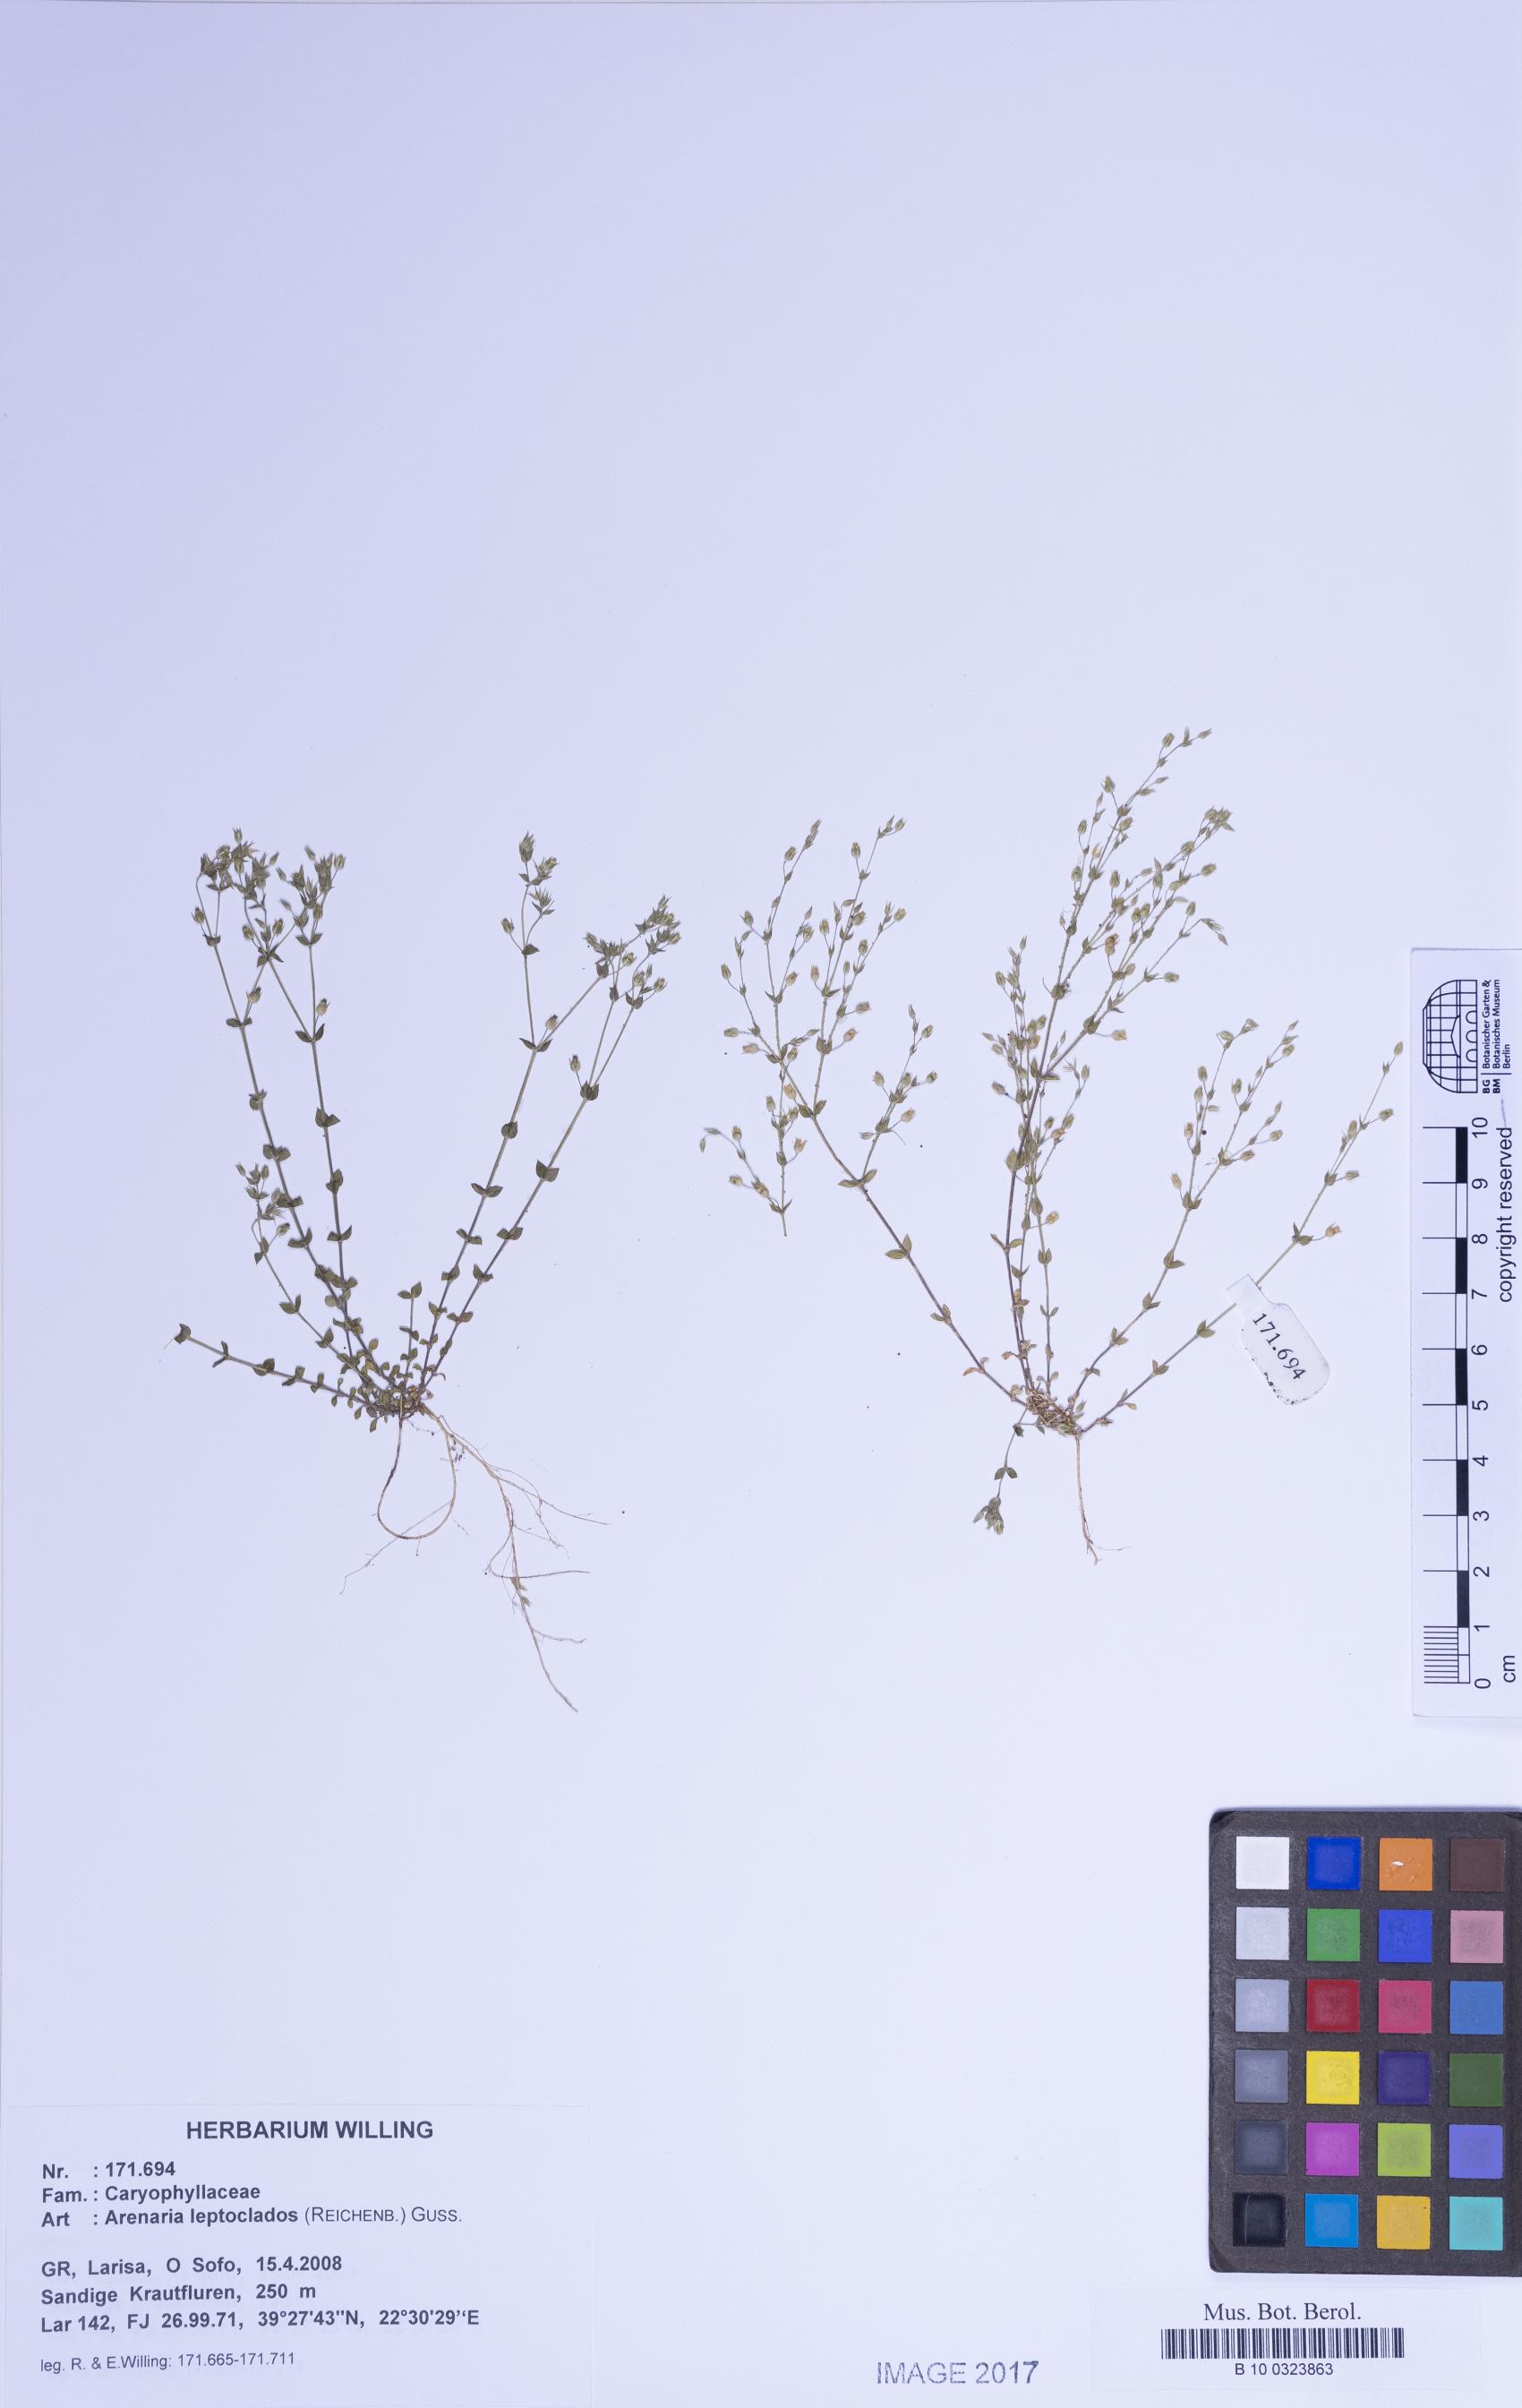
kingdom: Plantae
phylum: Tracheophyta
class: Magnoliopsida
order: Caryophyllales
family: Caryophyllaceae
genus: Arenaria
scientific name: Arenaria leptoclados
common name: Thyme-leaved sandwort
